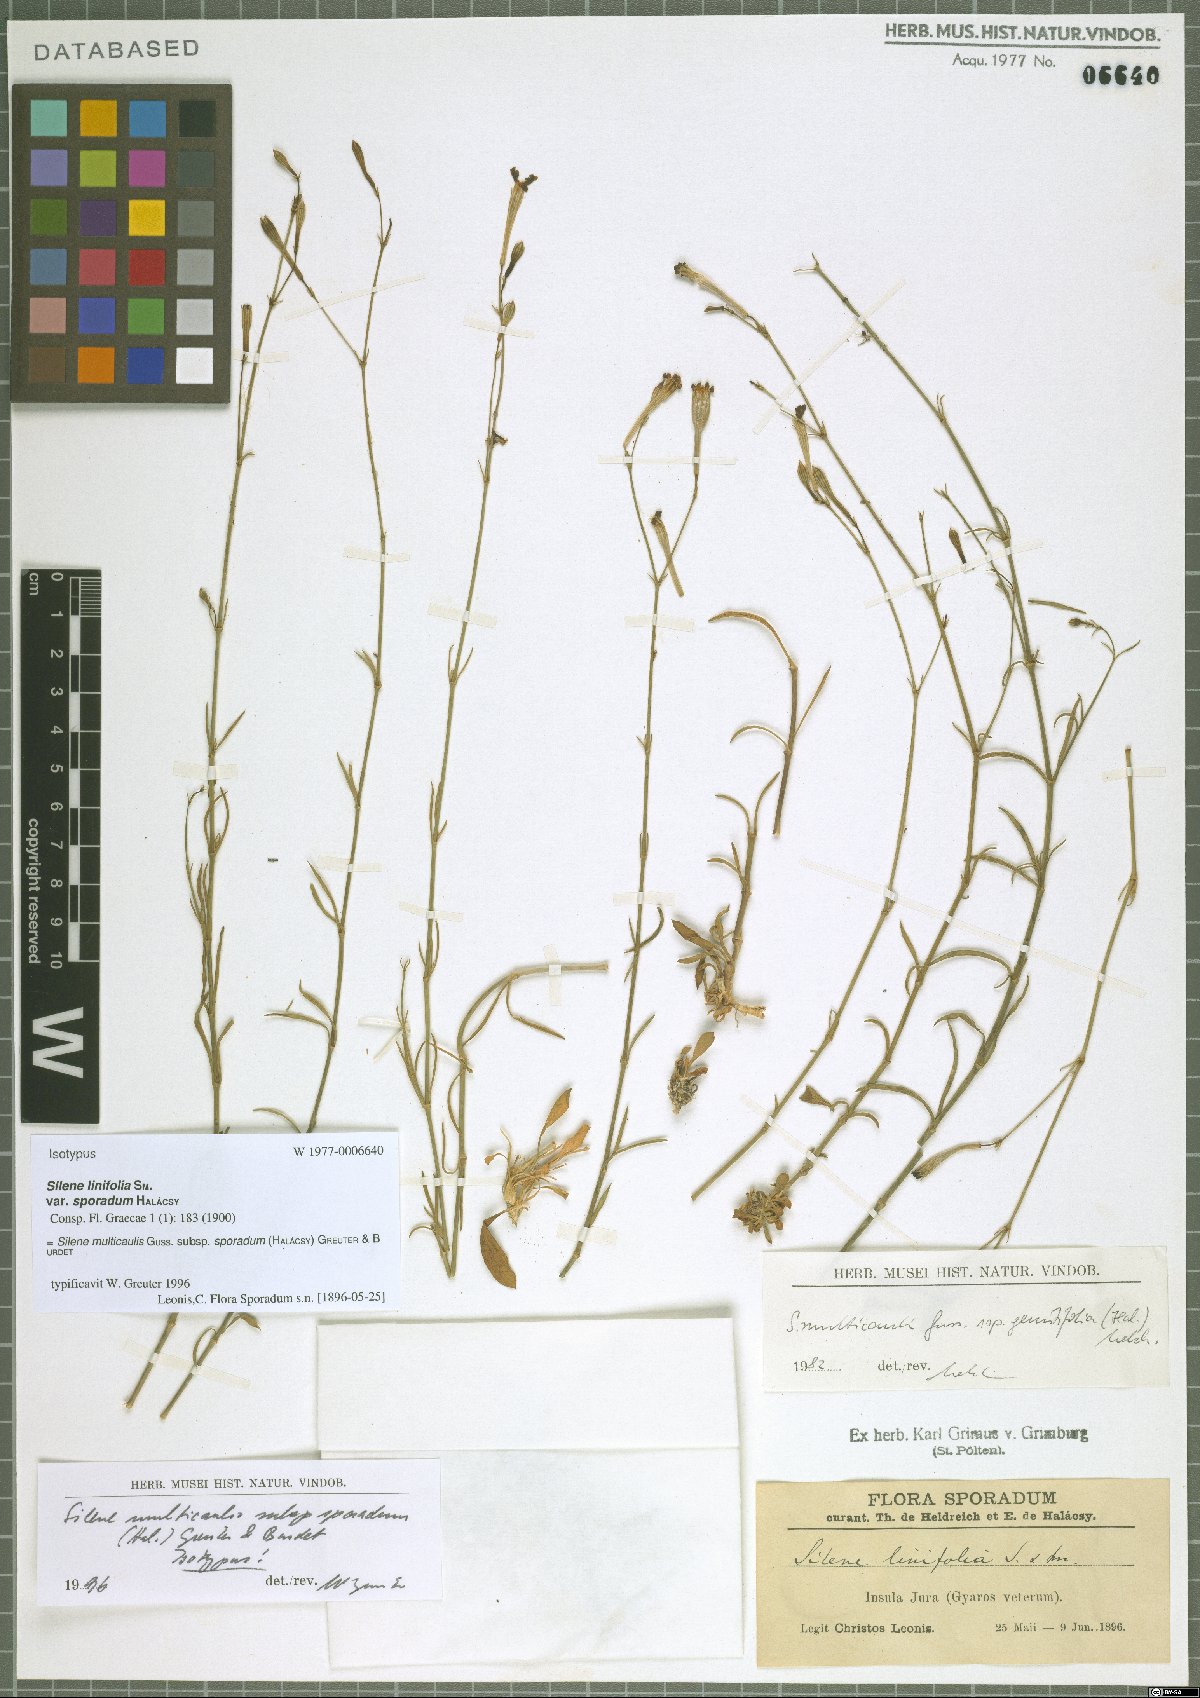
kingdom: Plantae
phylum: Tracheophyta
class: Magnoliopsida
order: Caryophyllales
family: Caryophyllaceae
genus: Silene
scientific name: Silene multicaulis
